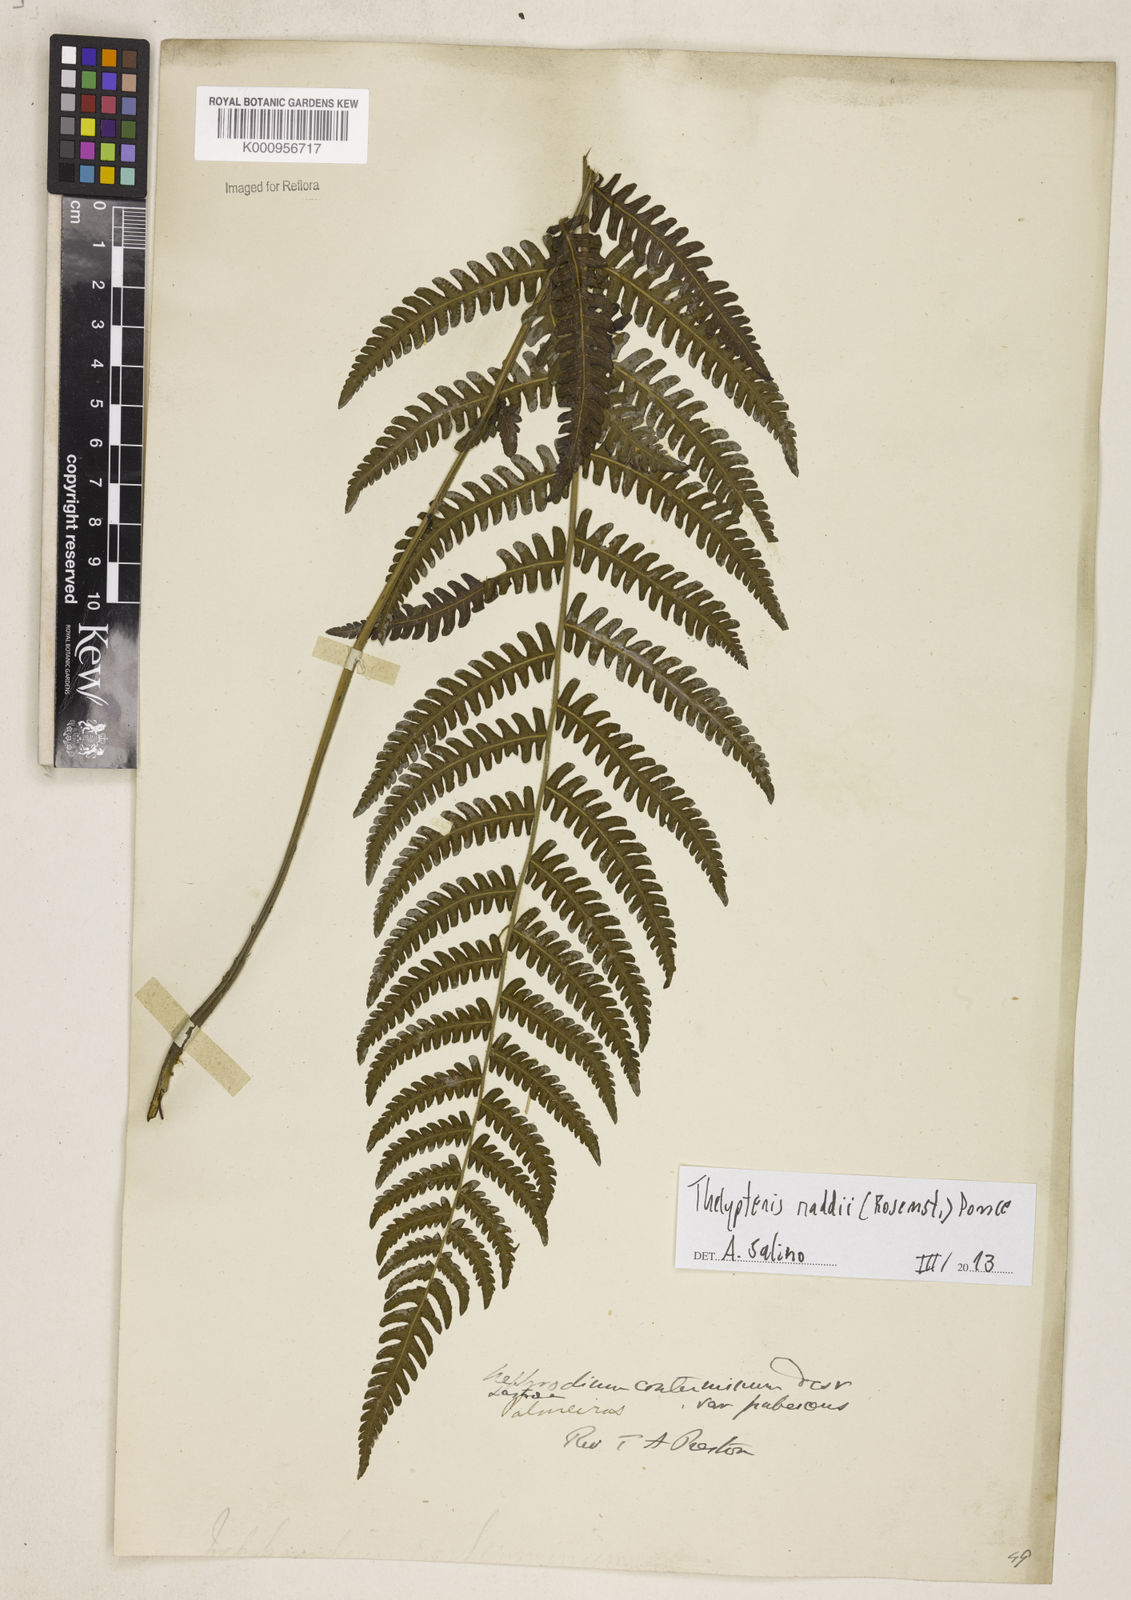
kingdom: Plantae
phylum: Tracheophyta
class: Polypodiopsida
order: Polypodiales
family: Thelypteridaceae
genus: Amauropelta
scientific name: Amauropelta raddii
